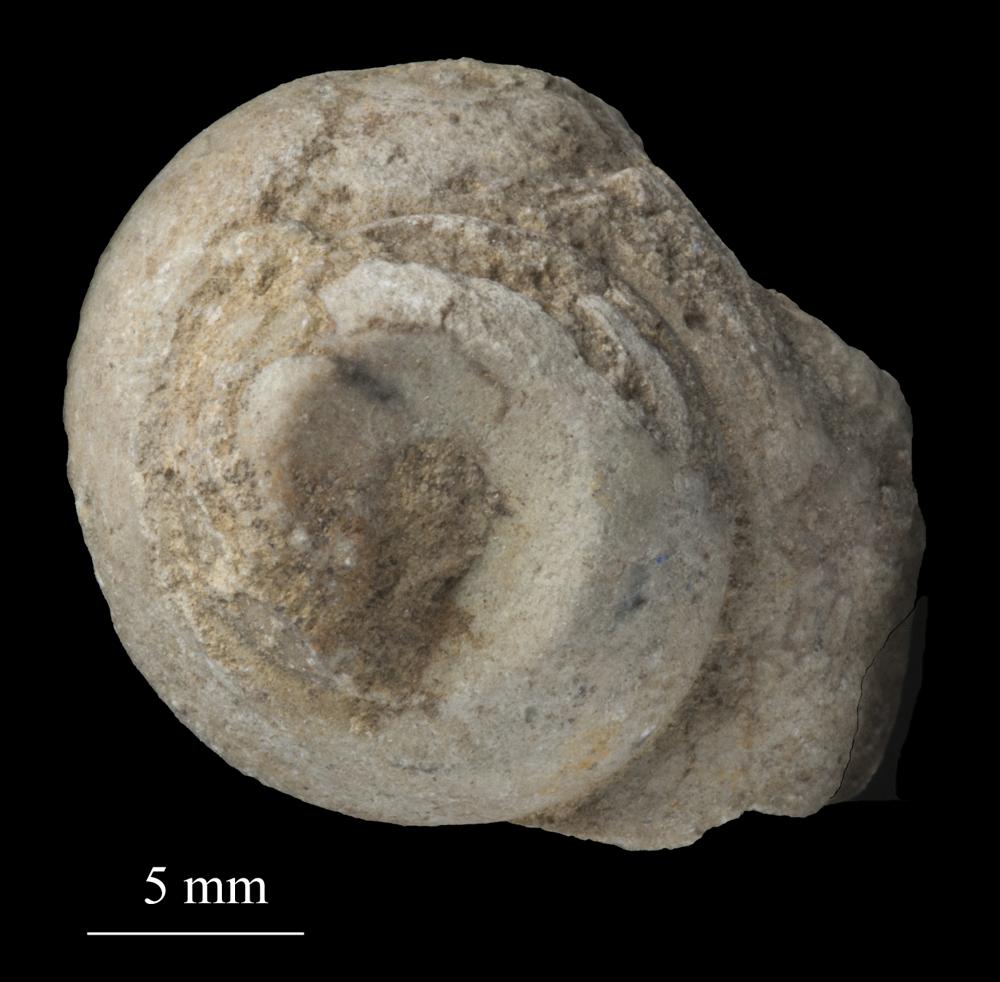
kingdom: Animalia
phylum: Mollusca
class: Gastropoda
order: Trochida
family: Trochidae
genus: Trochus
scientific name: Trochus ellipticus
